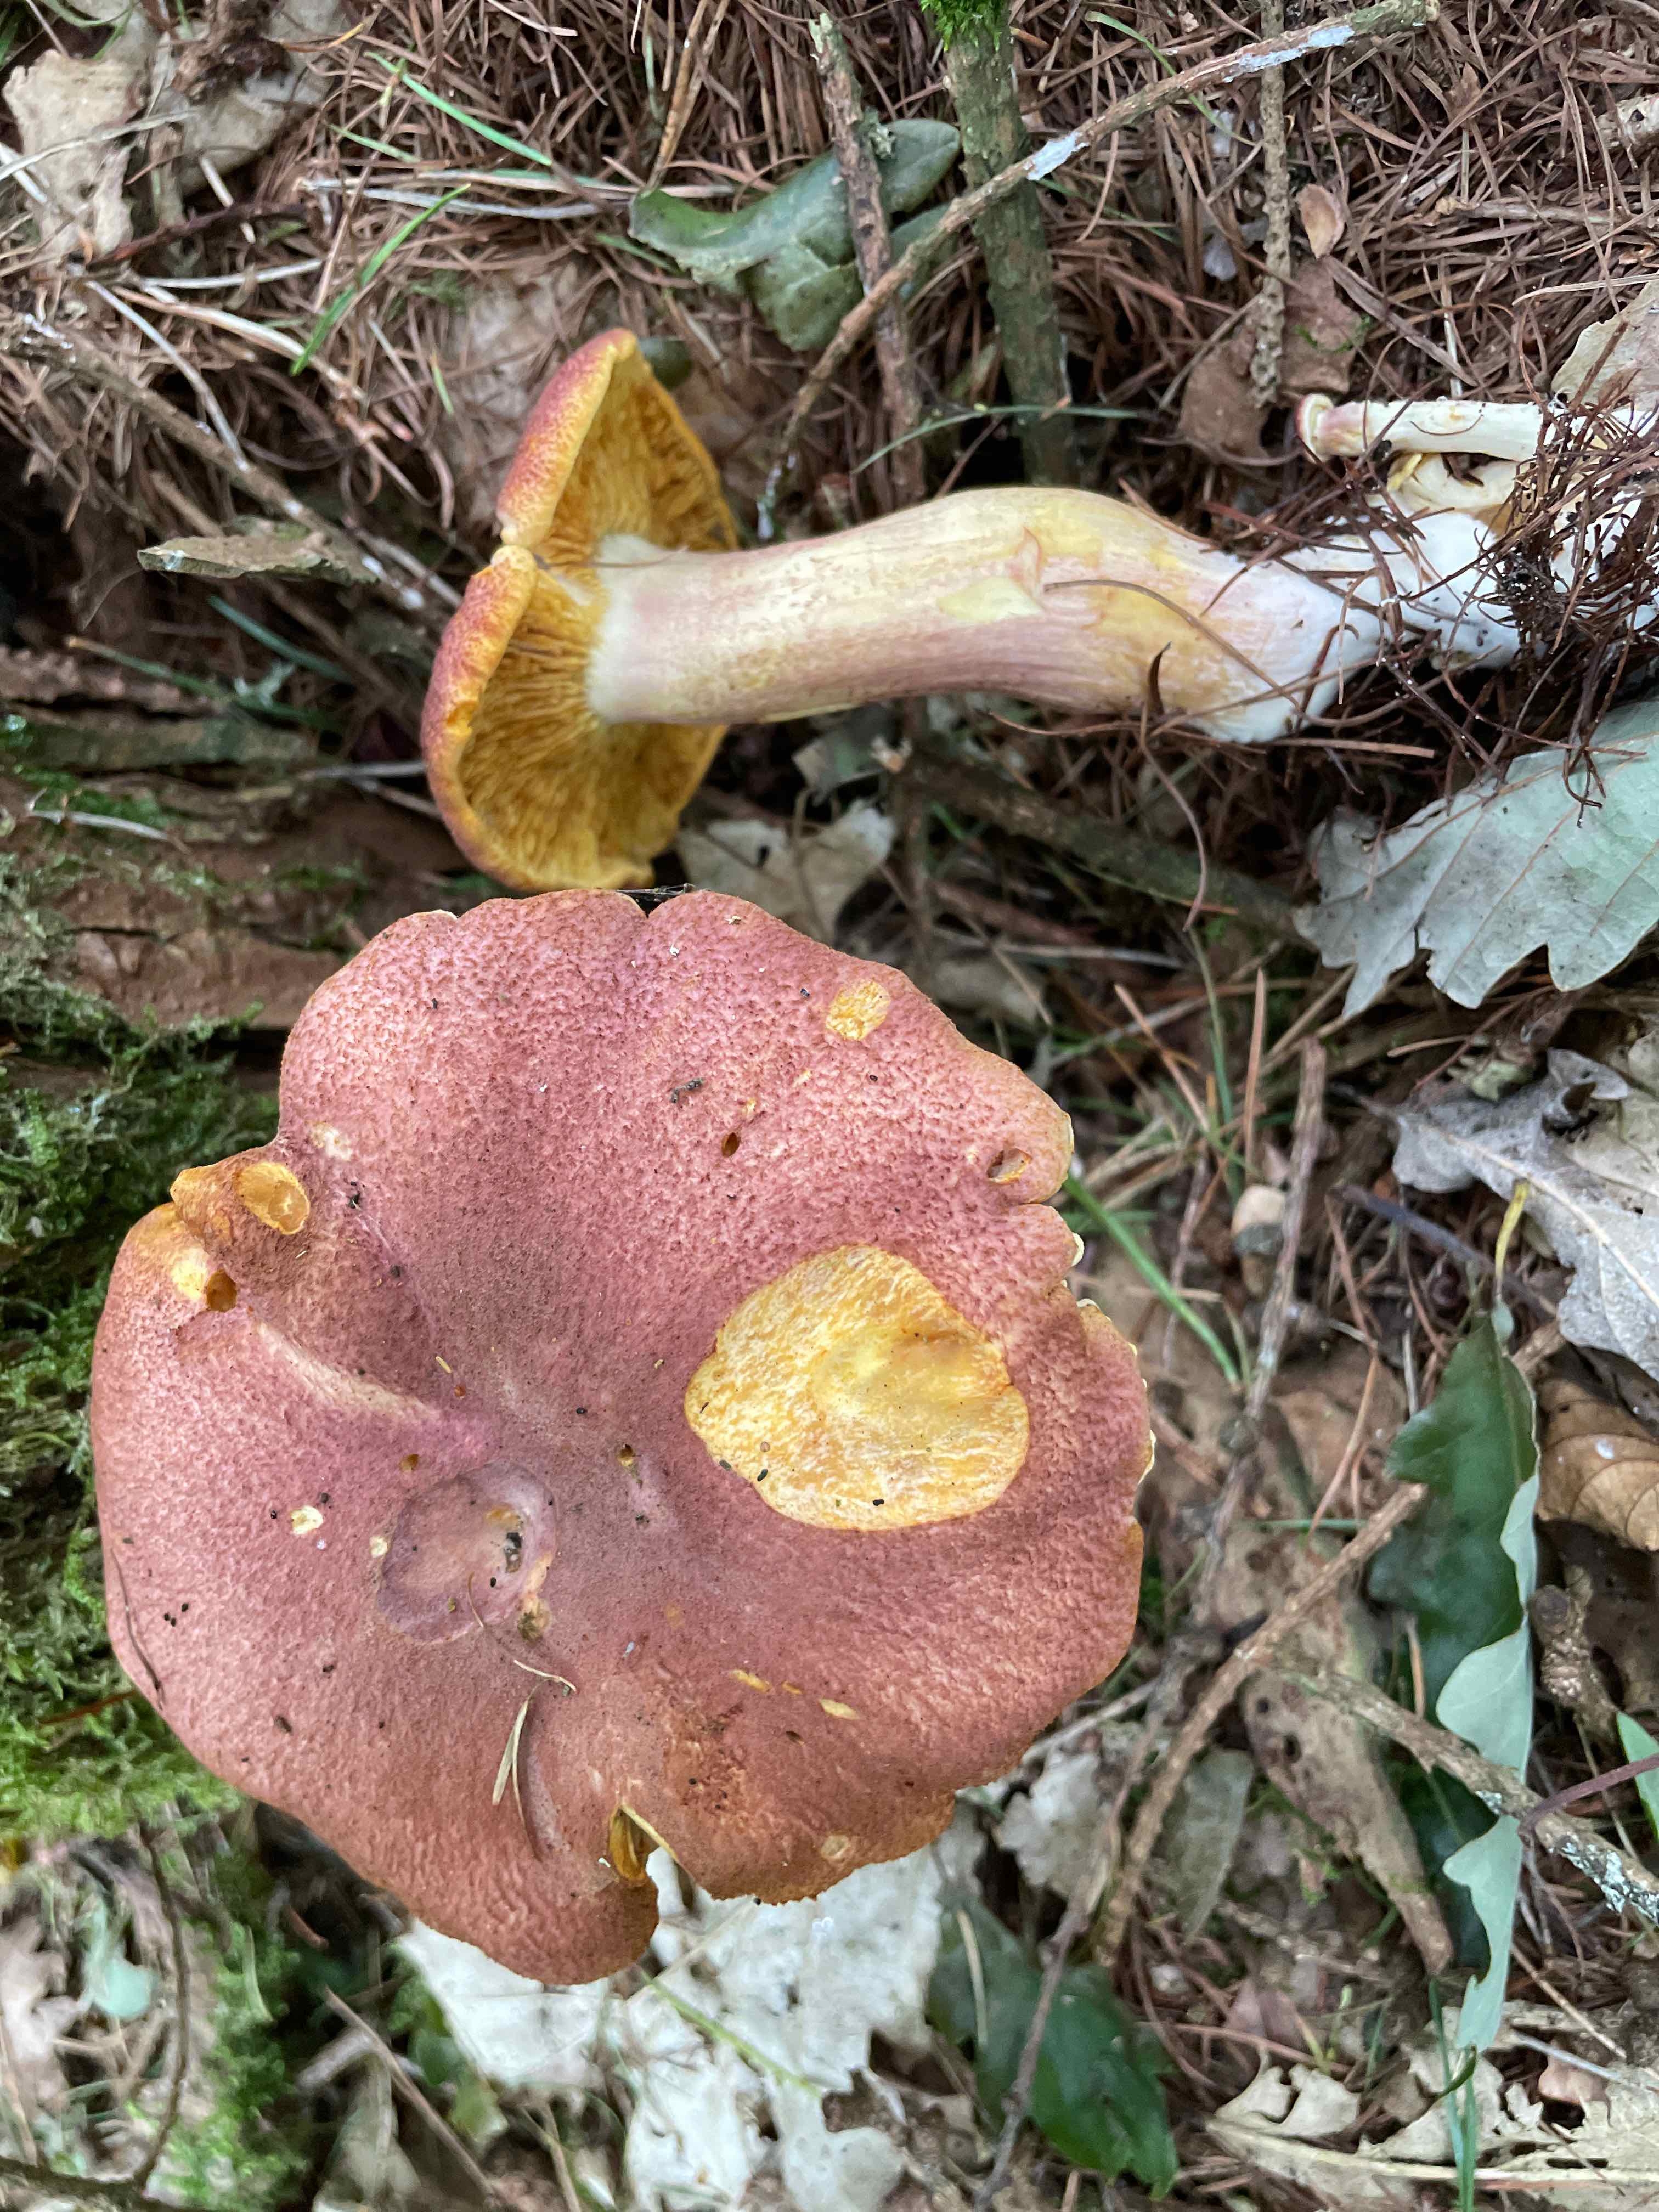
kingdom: Fungi
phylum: Basidiomycota
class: Agaricomycetes
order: Agaricales
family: Tricholomataceae
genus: Tricholomopsis
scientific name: Tricholomopsis rutilans
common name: purpur-væbnerhat
